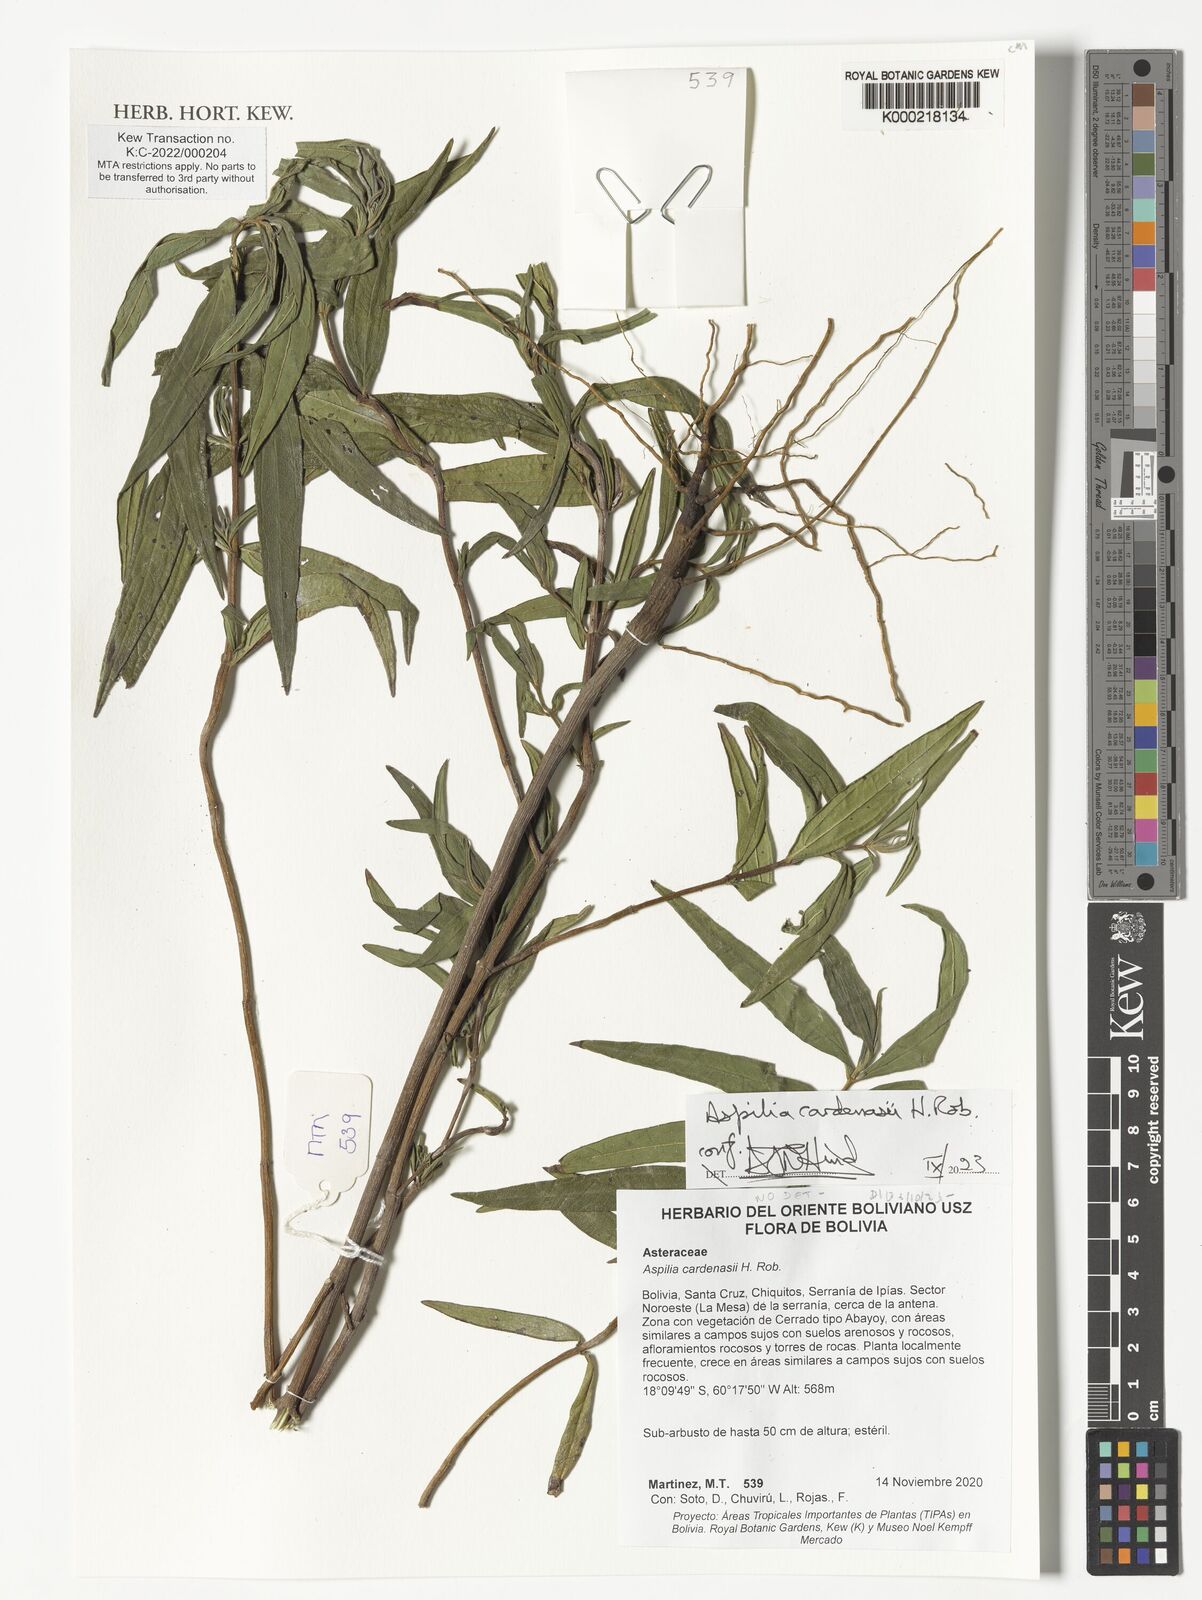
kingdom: Plantae
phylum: Tracheophyta
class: Magnoliopsida
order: Asterales
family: Asteraceae
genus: Centratherum
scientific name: Centratherum cardenasii
